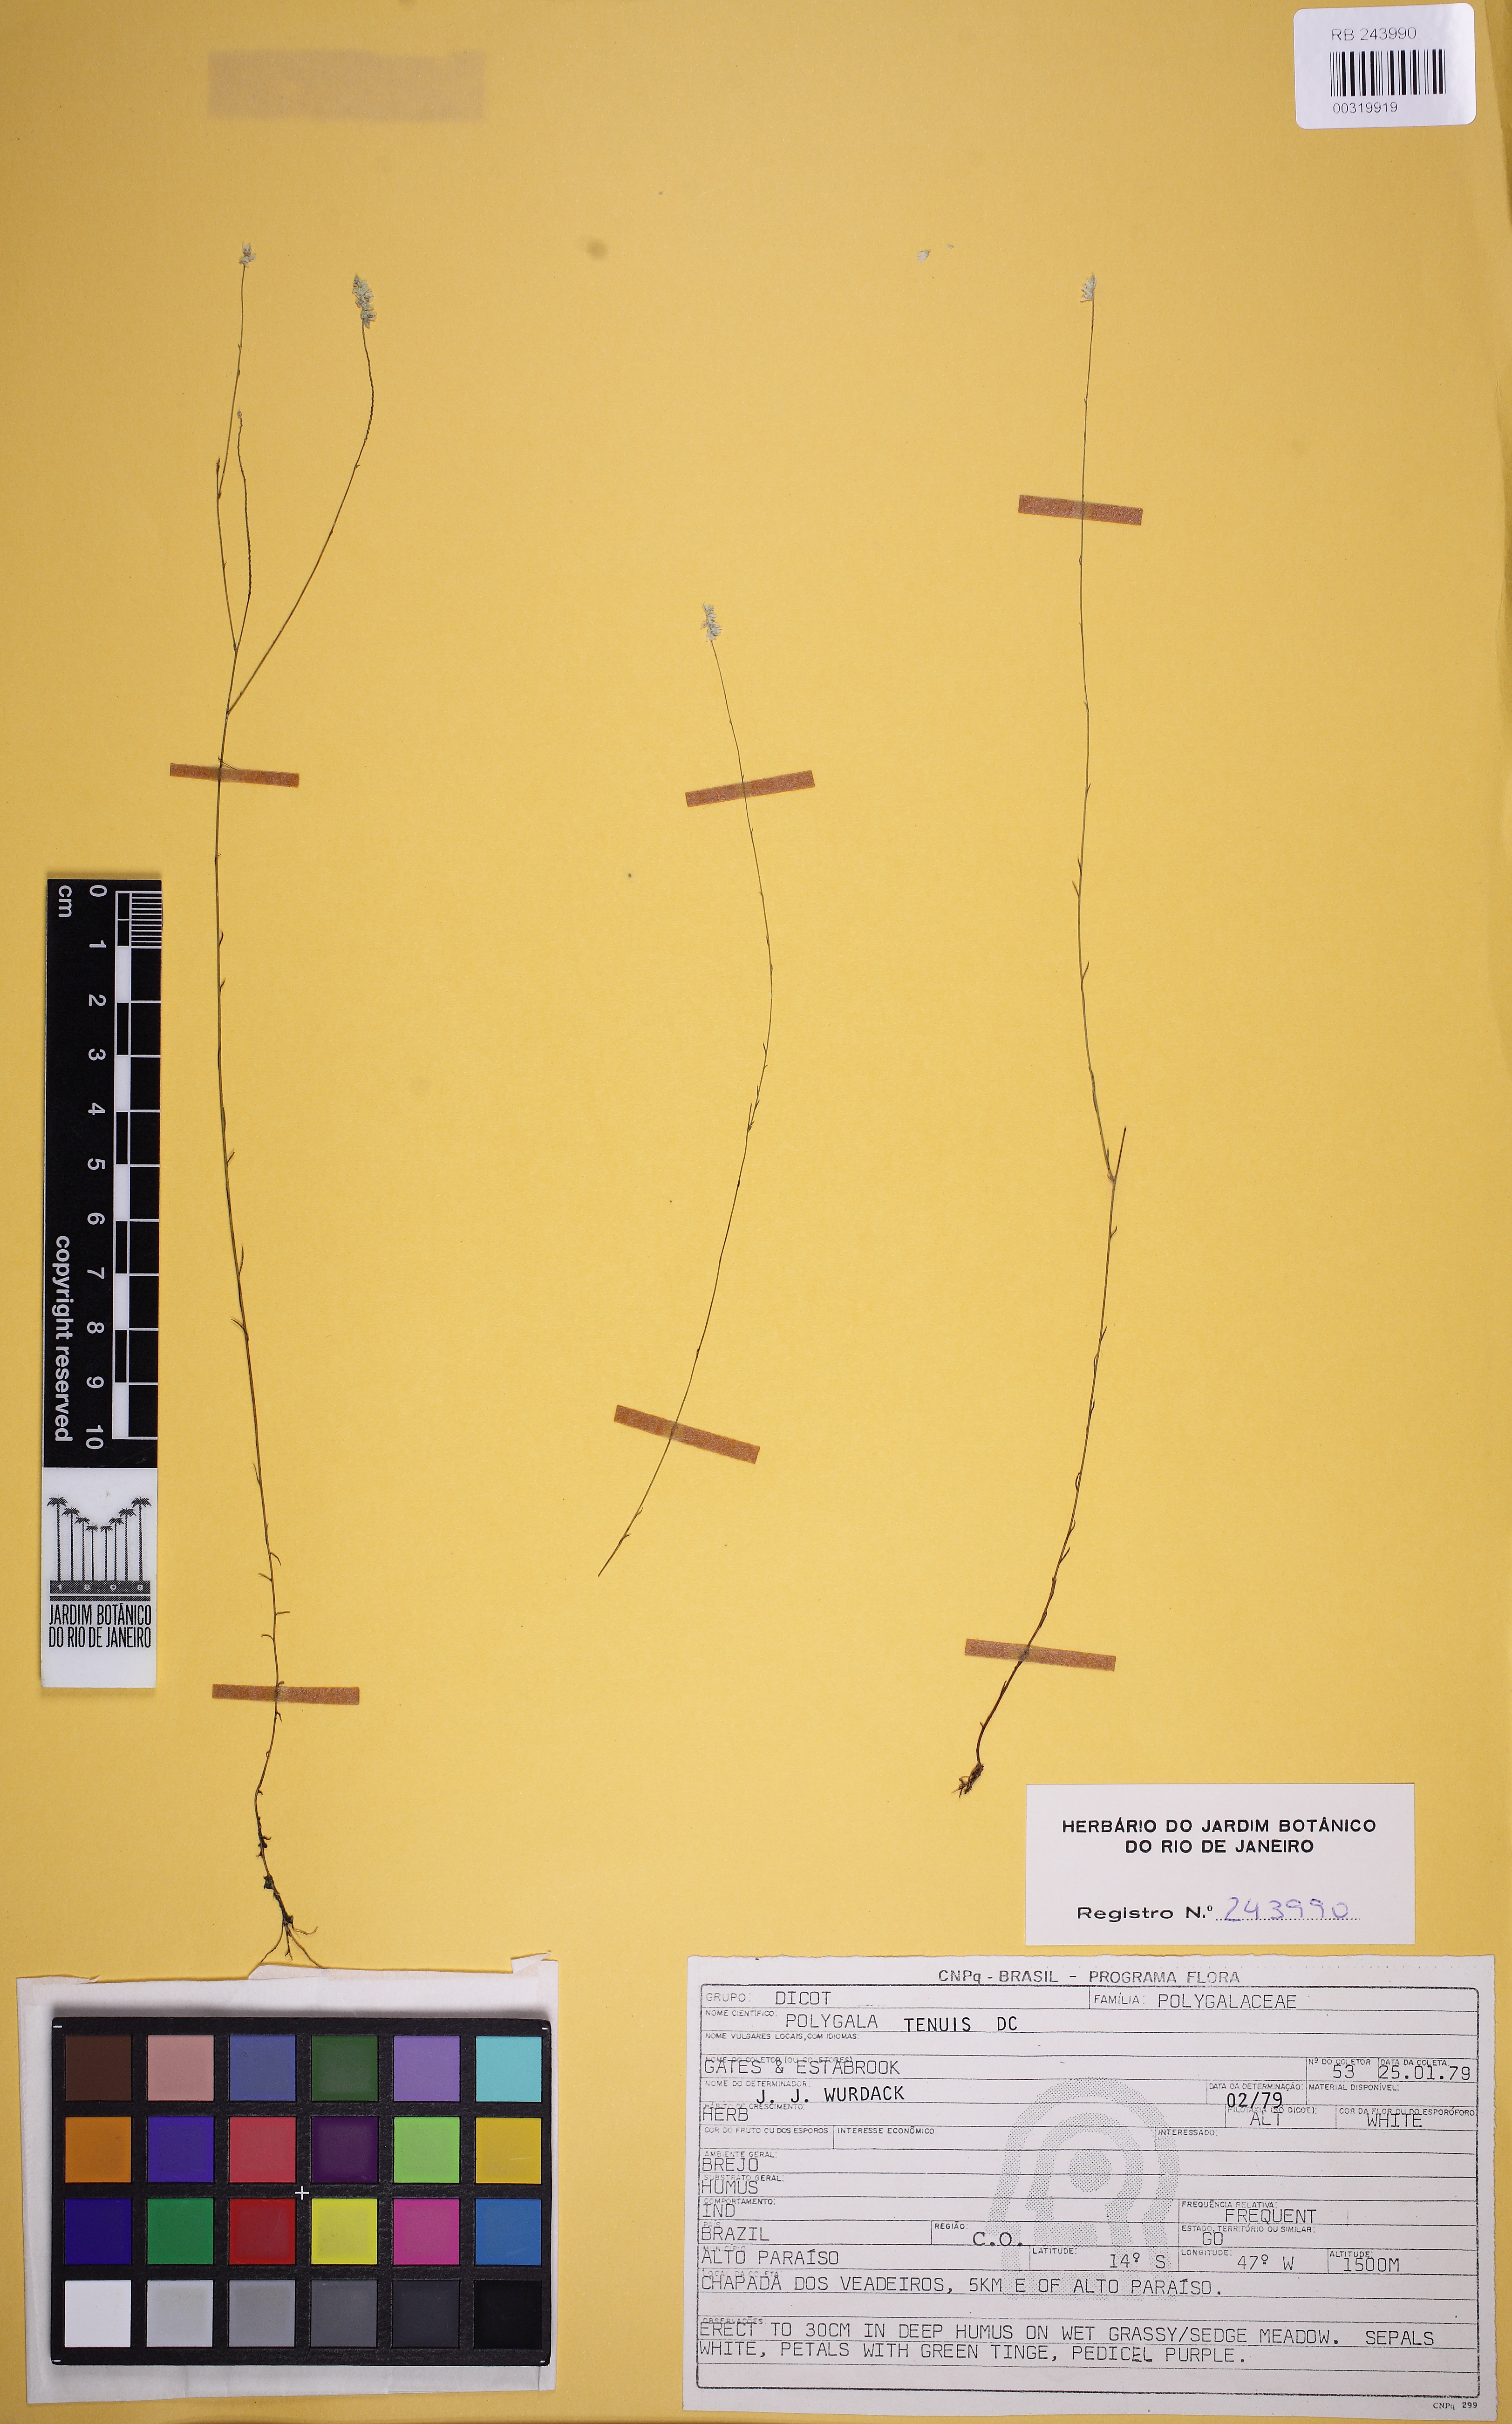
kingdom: Plantae
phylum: Tracheophyta
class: Magnoliopsida
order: Fabales
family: Polygalaceae
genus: Polygala
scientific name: Polygala tenuis
